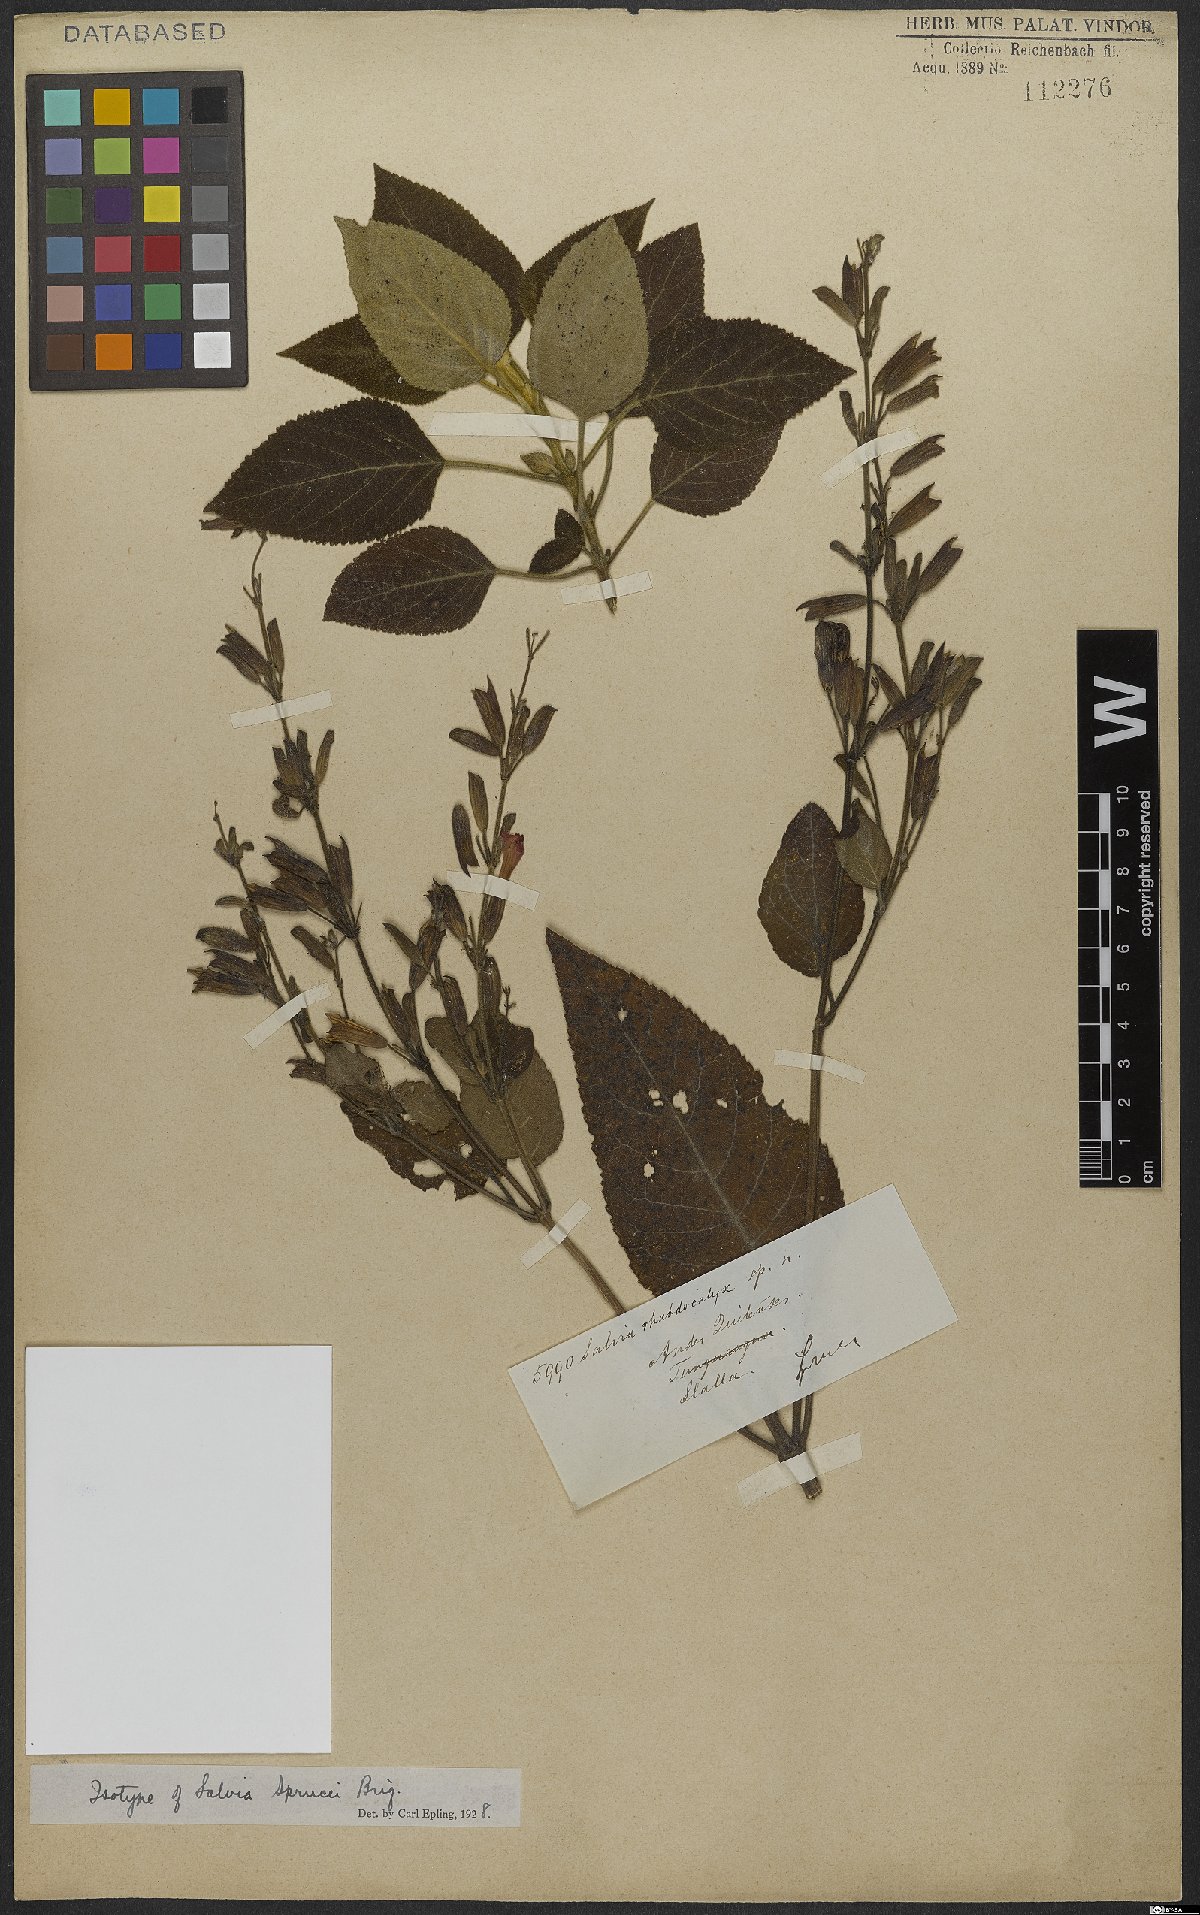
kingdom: Plantae
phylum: Tracheophyta
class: Magnoliopsida
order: Lamiales
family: Lamiaceae
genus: Salvia
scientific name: Salvia sprucei
